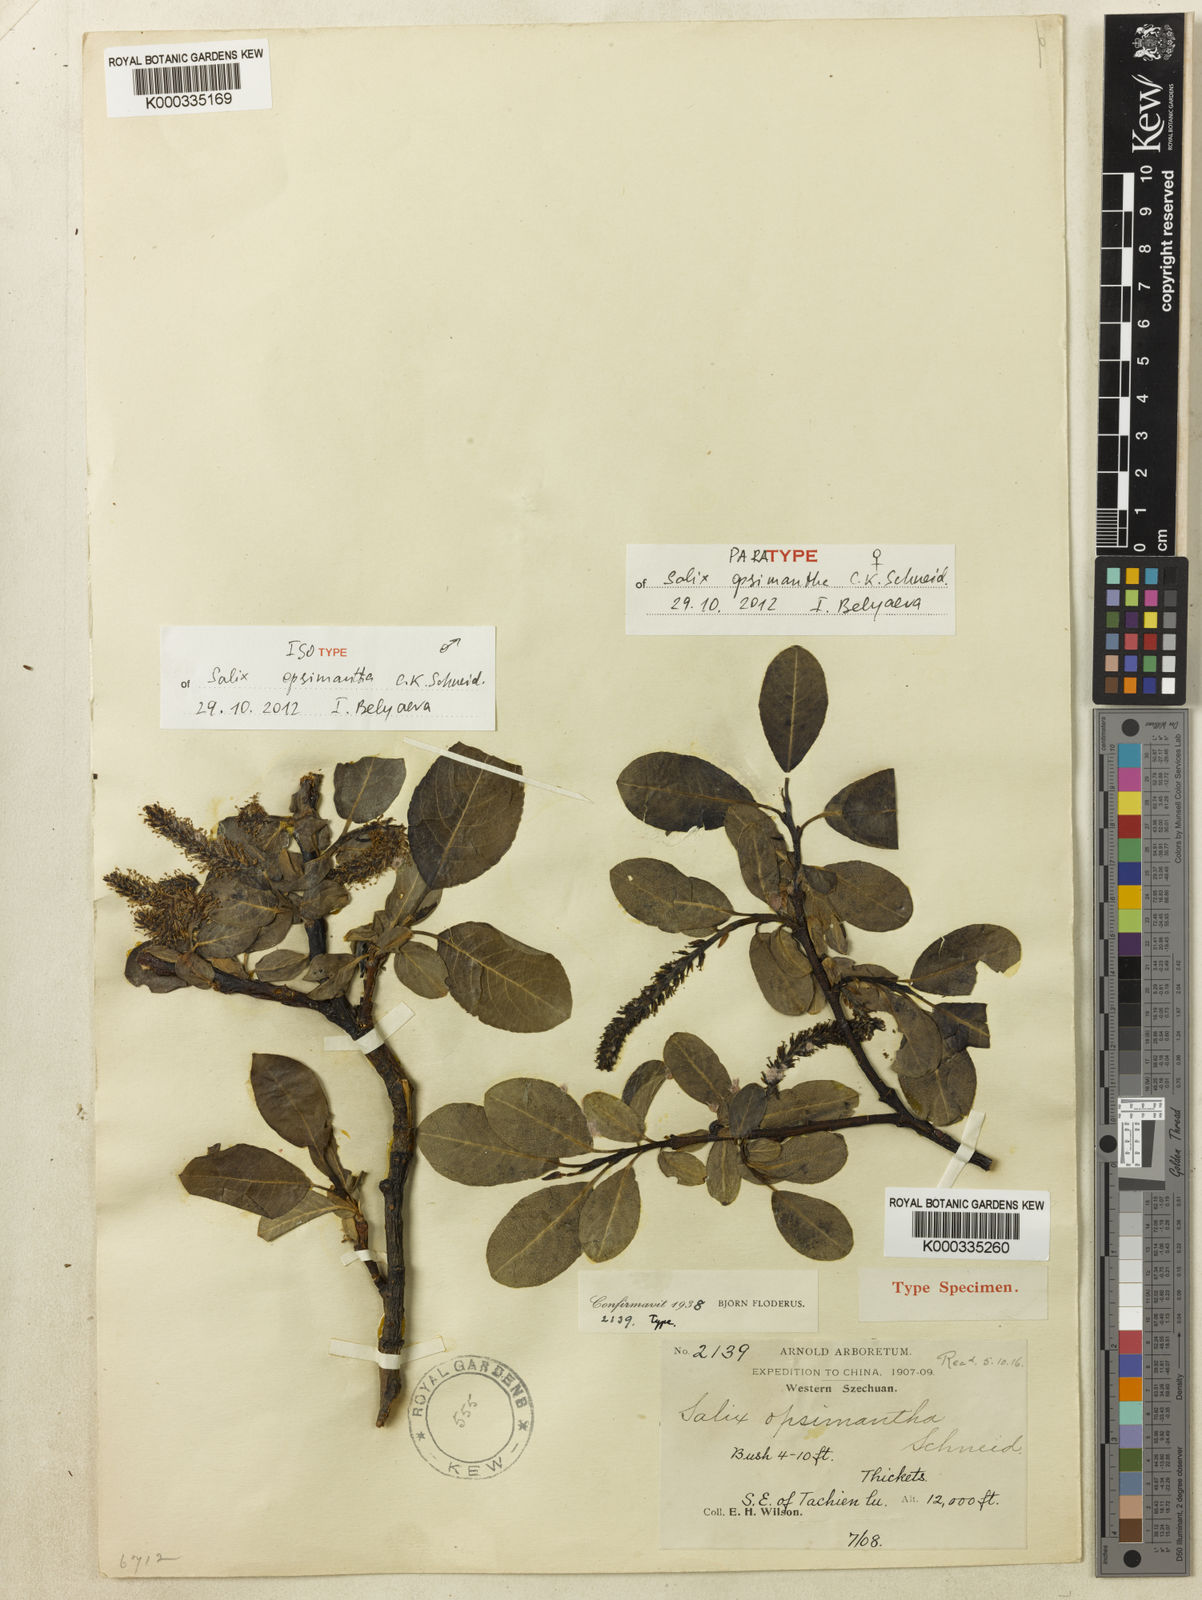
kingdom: Plantae
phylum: Tracheophyta
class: Magnoliopsida
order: Malpighiales
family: Salicaceae
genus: Salix
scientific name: Salix opsimantha
